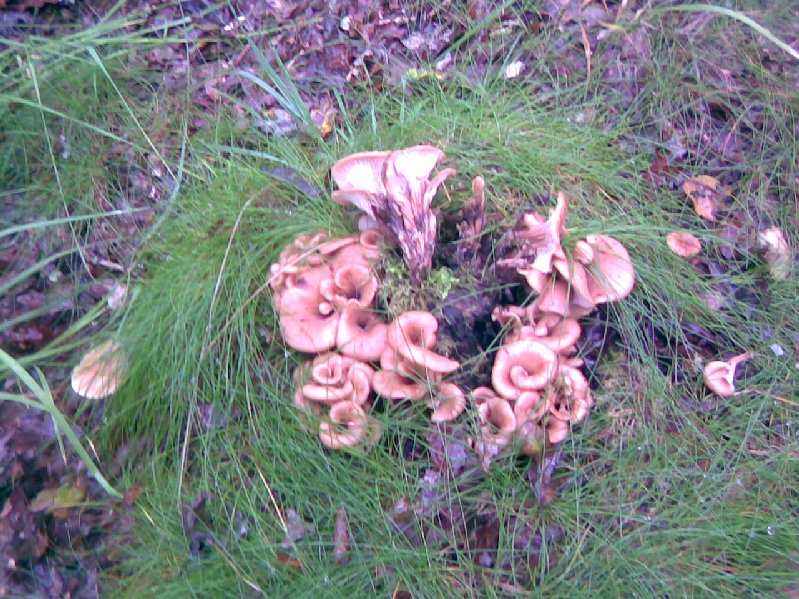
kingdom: Fungi
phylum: Basidiomycota
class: Agaricomycetes
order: Russulales
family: Auriscalpiaceae
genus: Lentinellus
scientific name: Lentinellus cochleatus
